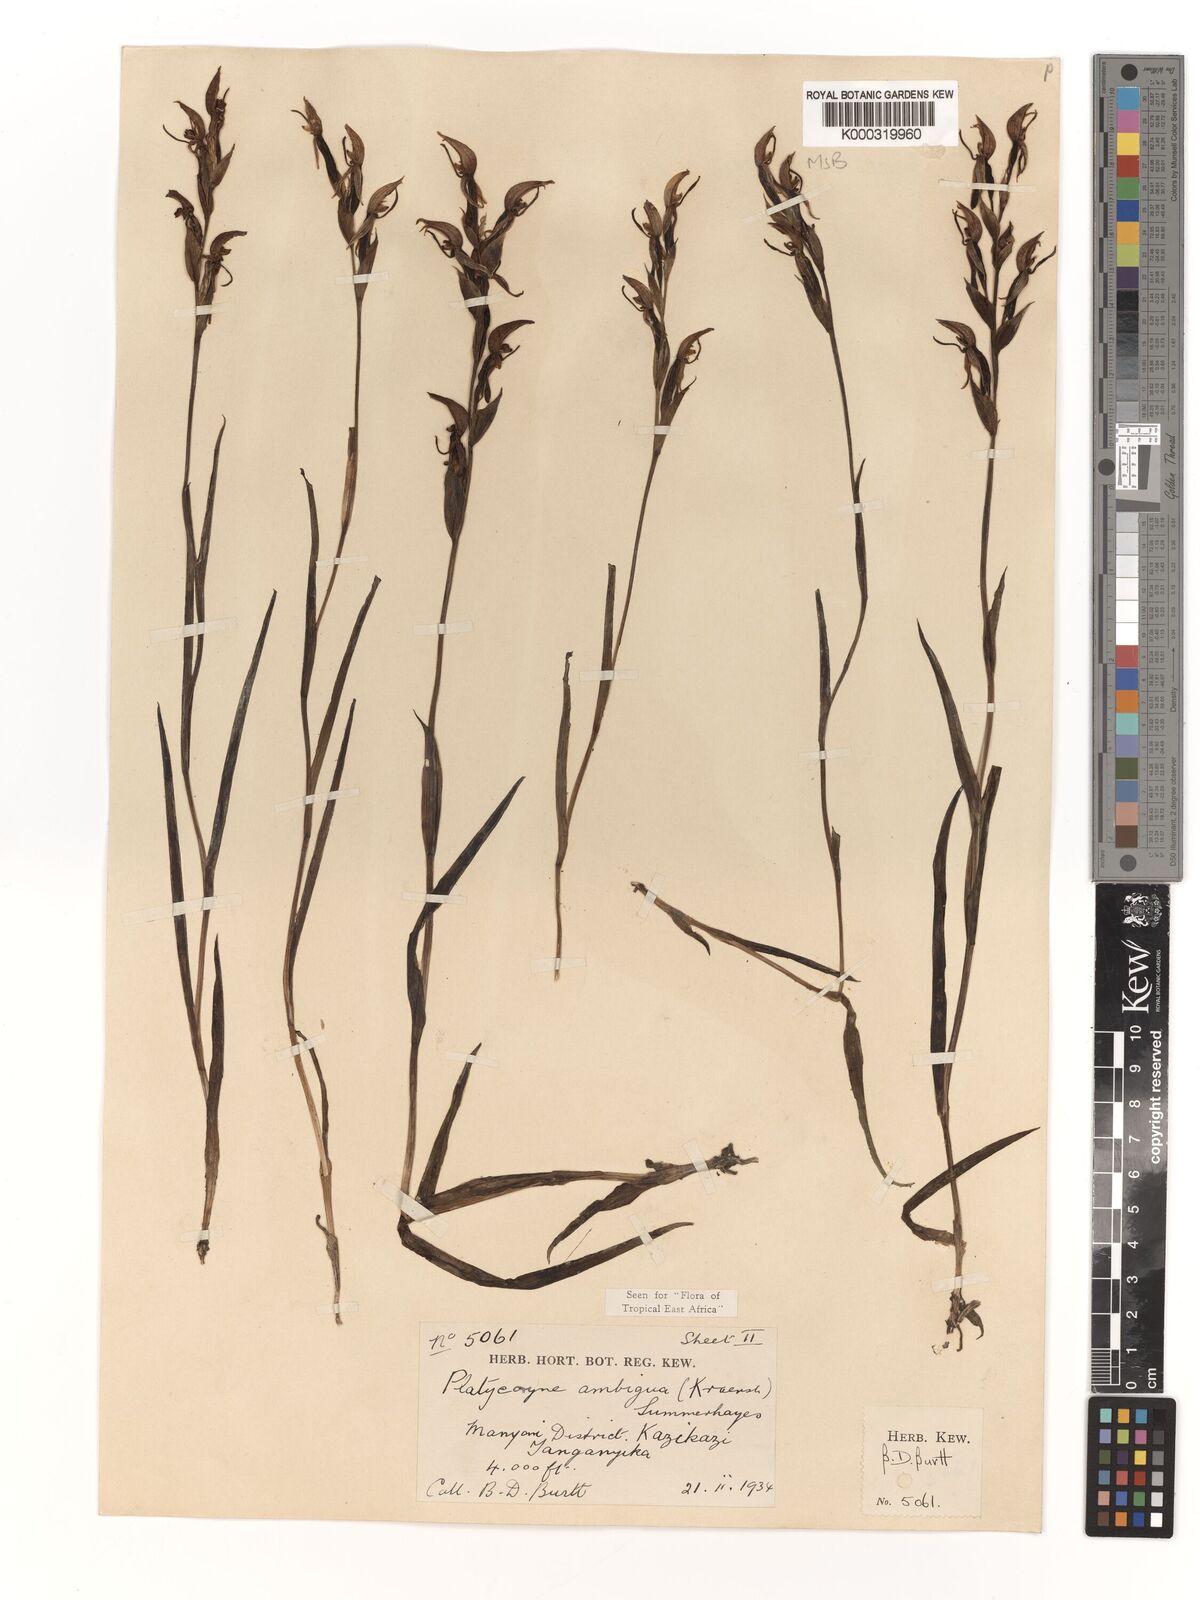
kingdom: Plantae
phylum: Tracheophyta
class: Liliopsida
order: Asparagales
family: Orchidaceae
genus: Platycoryne
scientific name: Platycoryne ambigua
